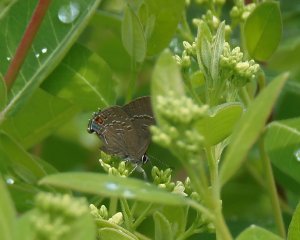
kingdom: Animalia
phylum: Arthropoda
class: Insecta
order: Lepidoptera
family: Lycaenidae
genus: Satyrium
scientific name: Satyrium calanus
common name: Banded Hairstreak
